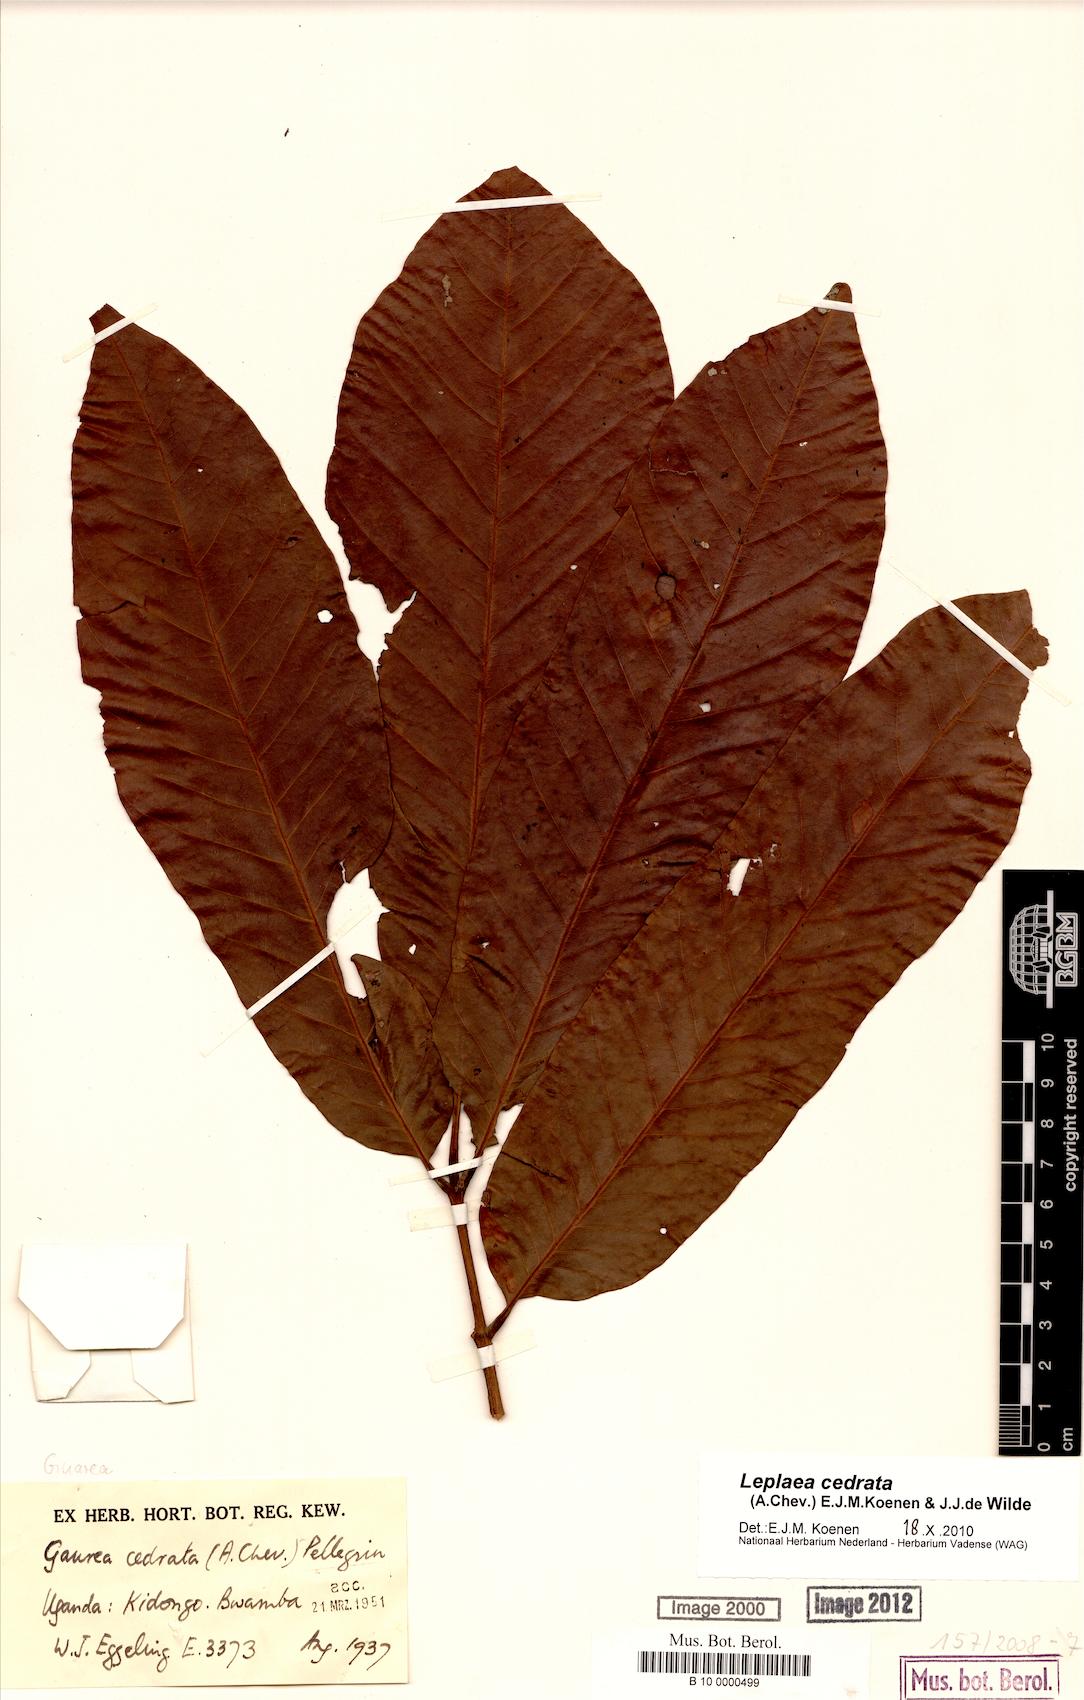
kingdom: Plantae
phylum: Tracheophyta
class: Magnoliopsida
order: Sapindales
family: Meliaceae
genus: Leplaea
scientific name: Leplaea cedrata
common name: Light bossé
